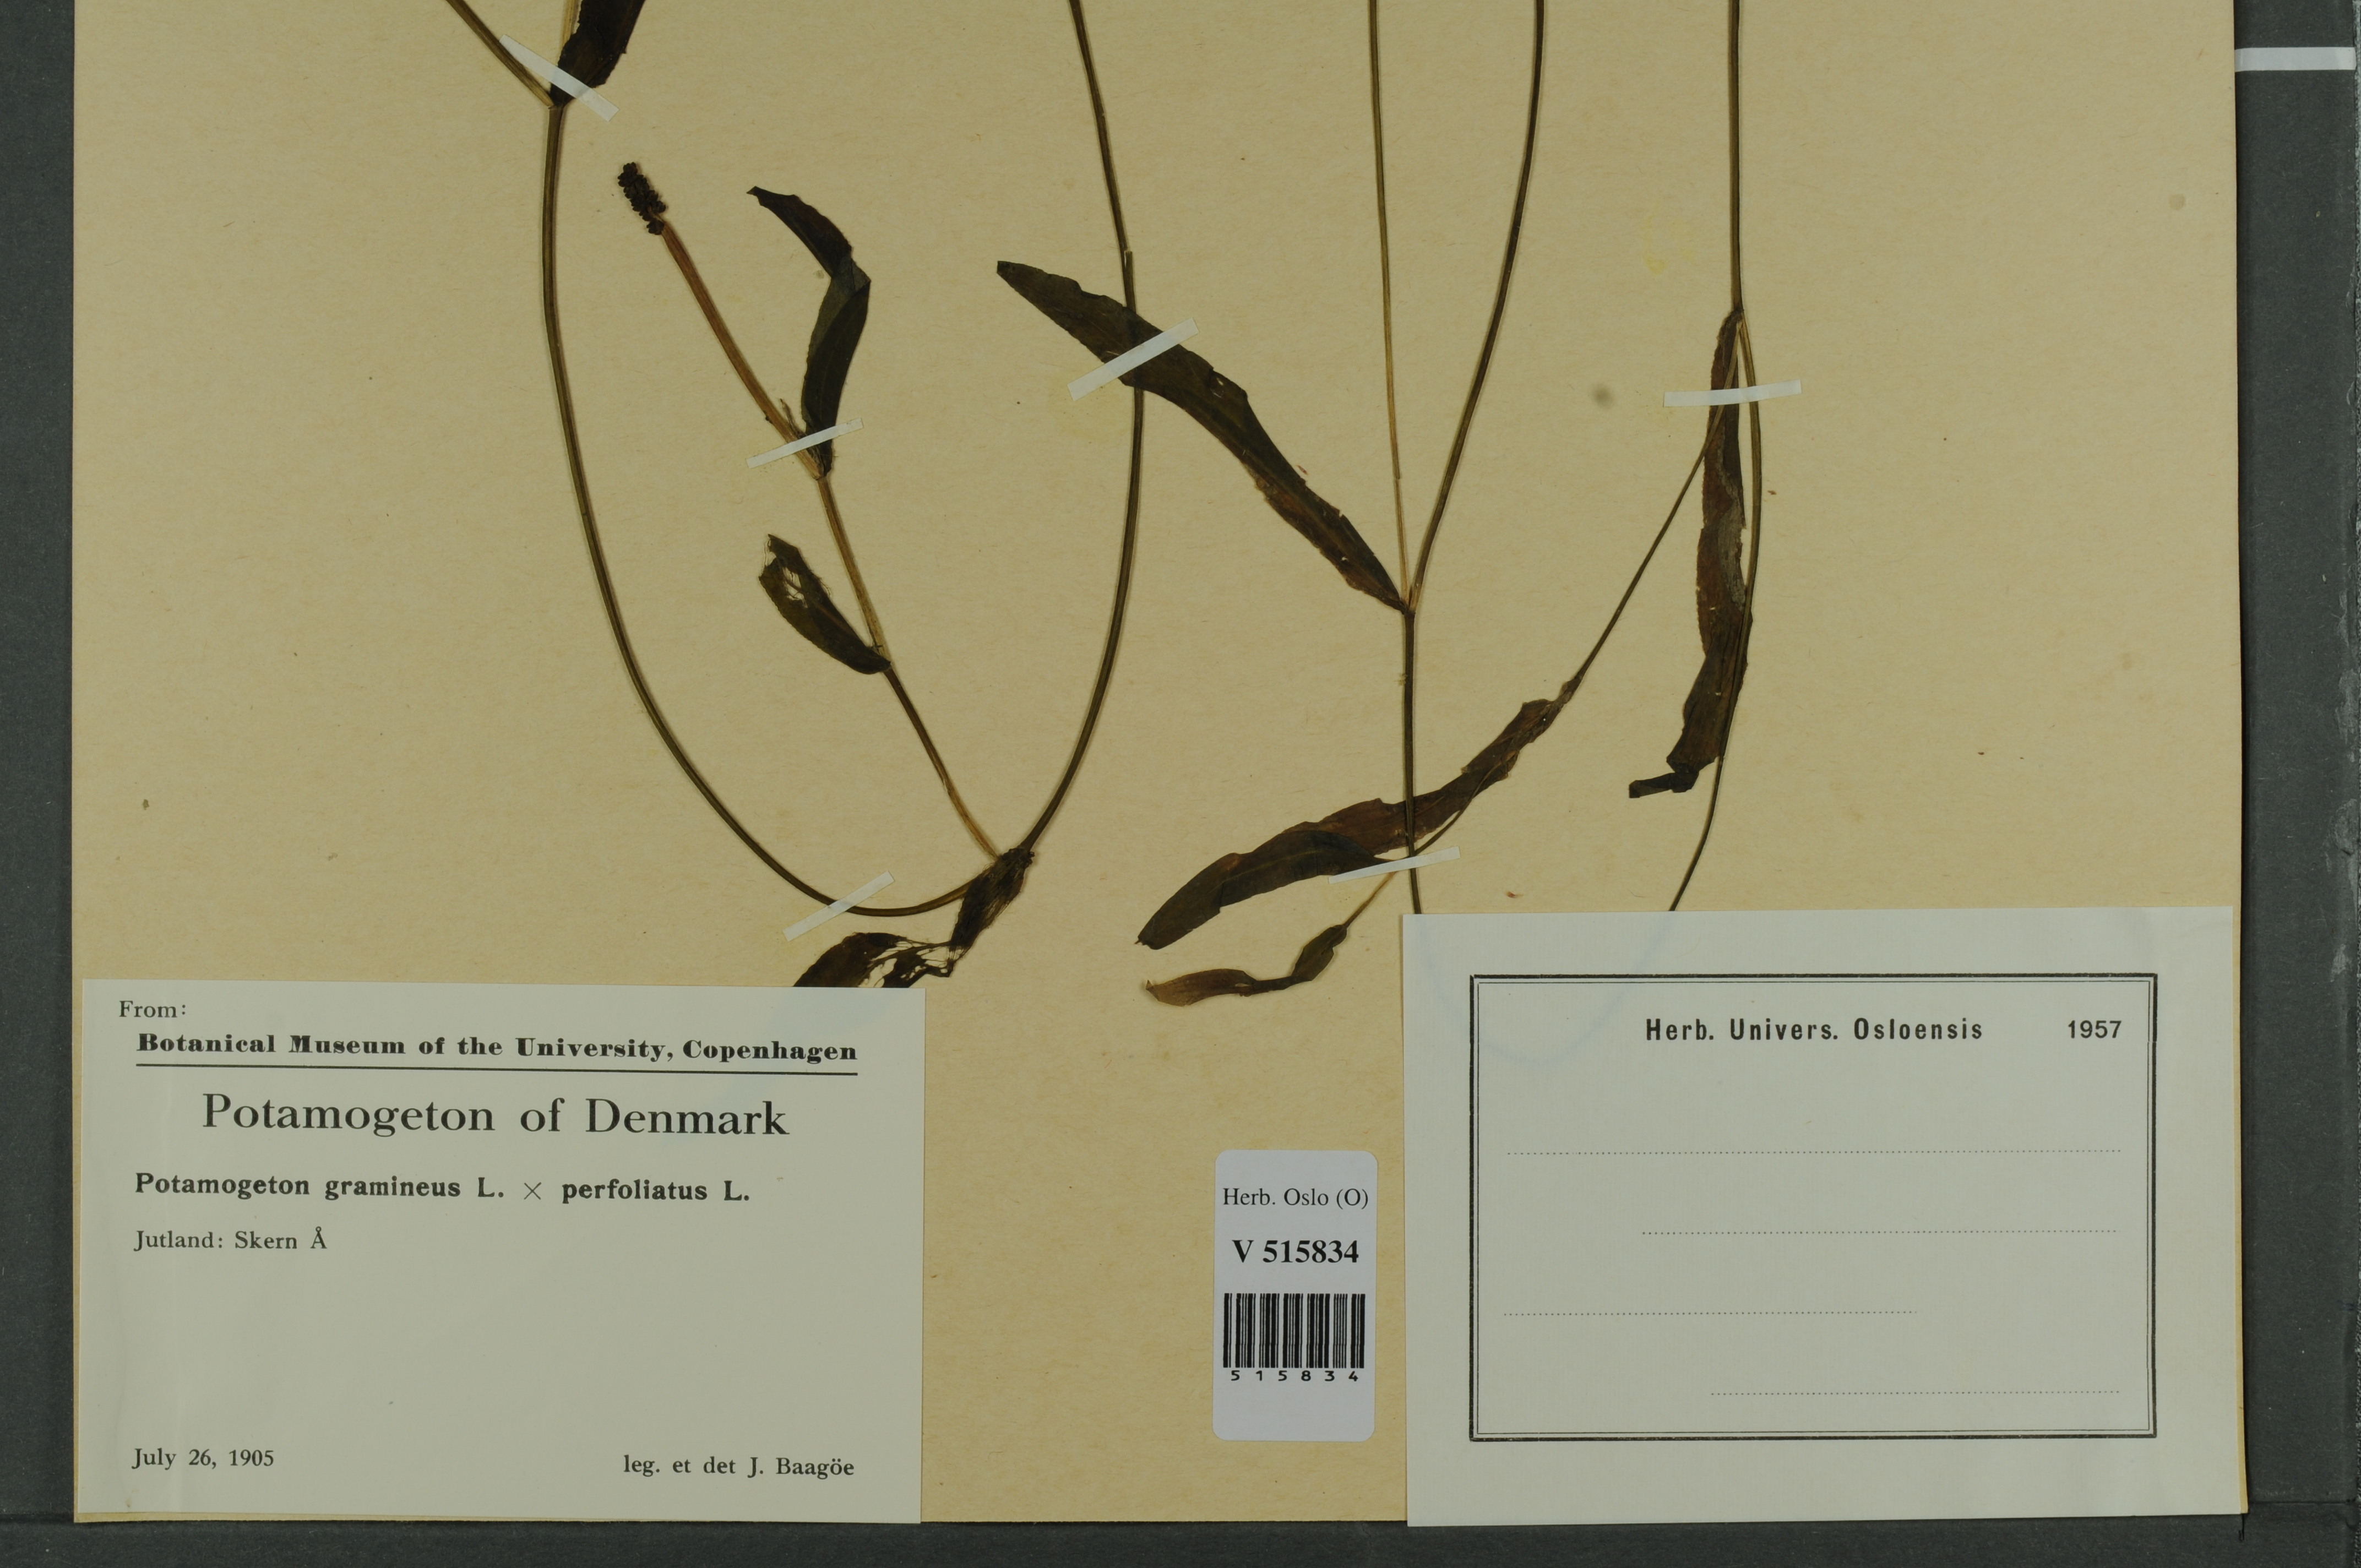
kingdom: Plantae
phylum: Tracheophyta
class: Liliopsida
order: Alismatales
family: Potamogetonaceae
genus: Potamogeton
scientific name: Potamogeton
